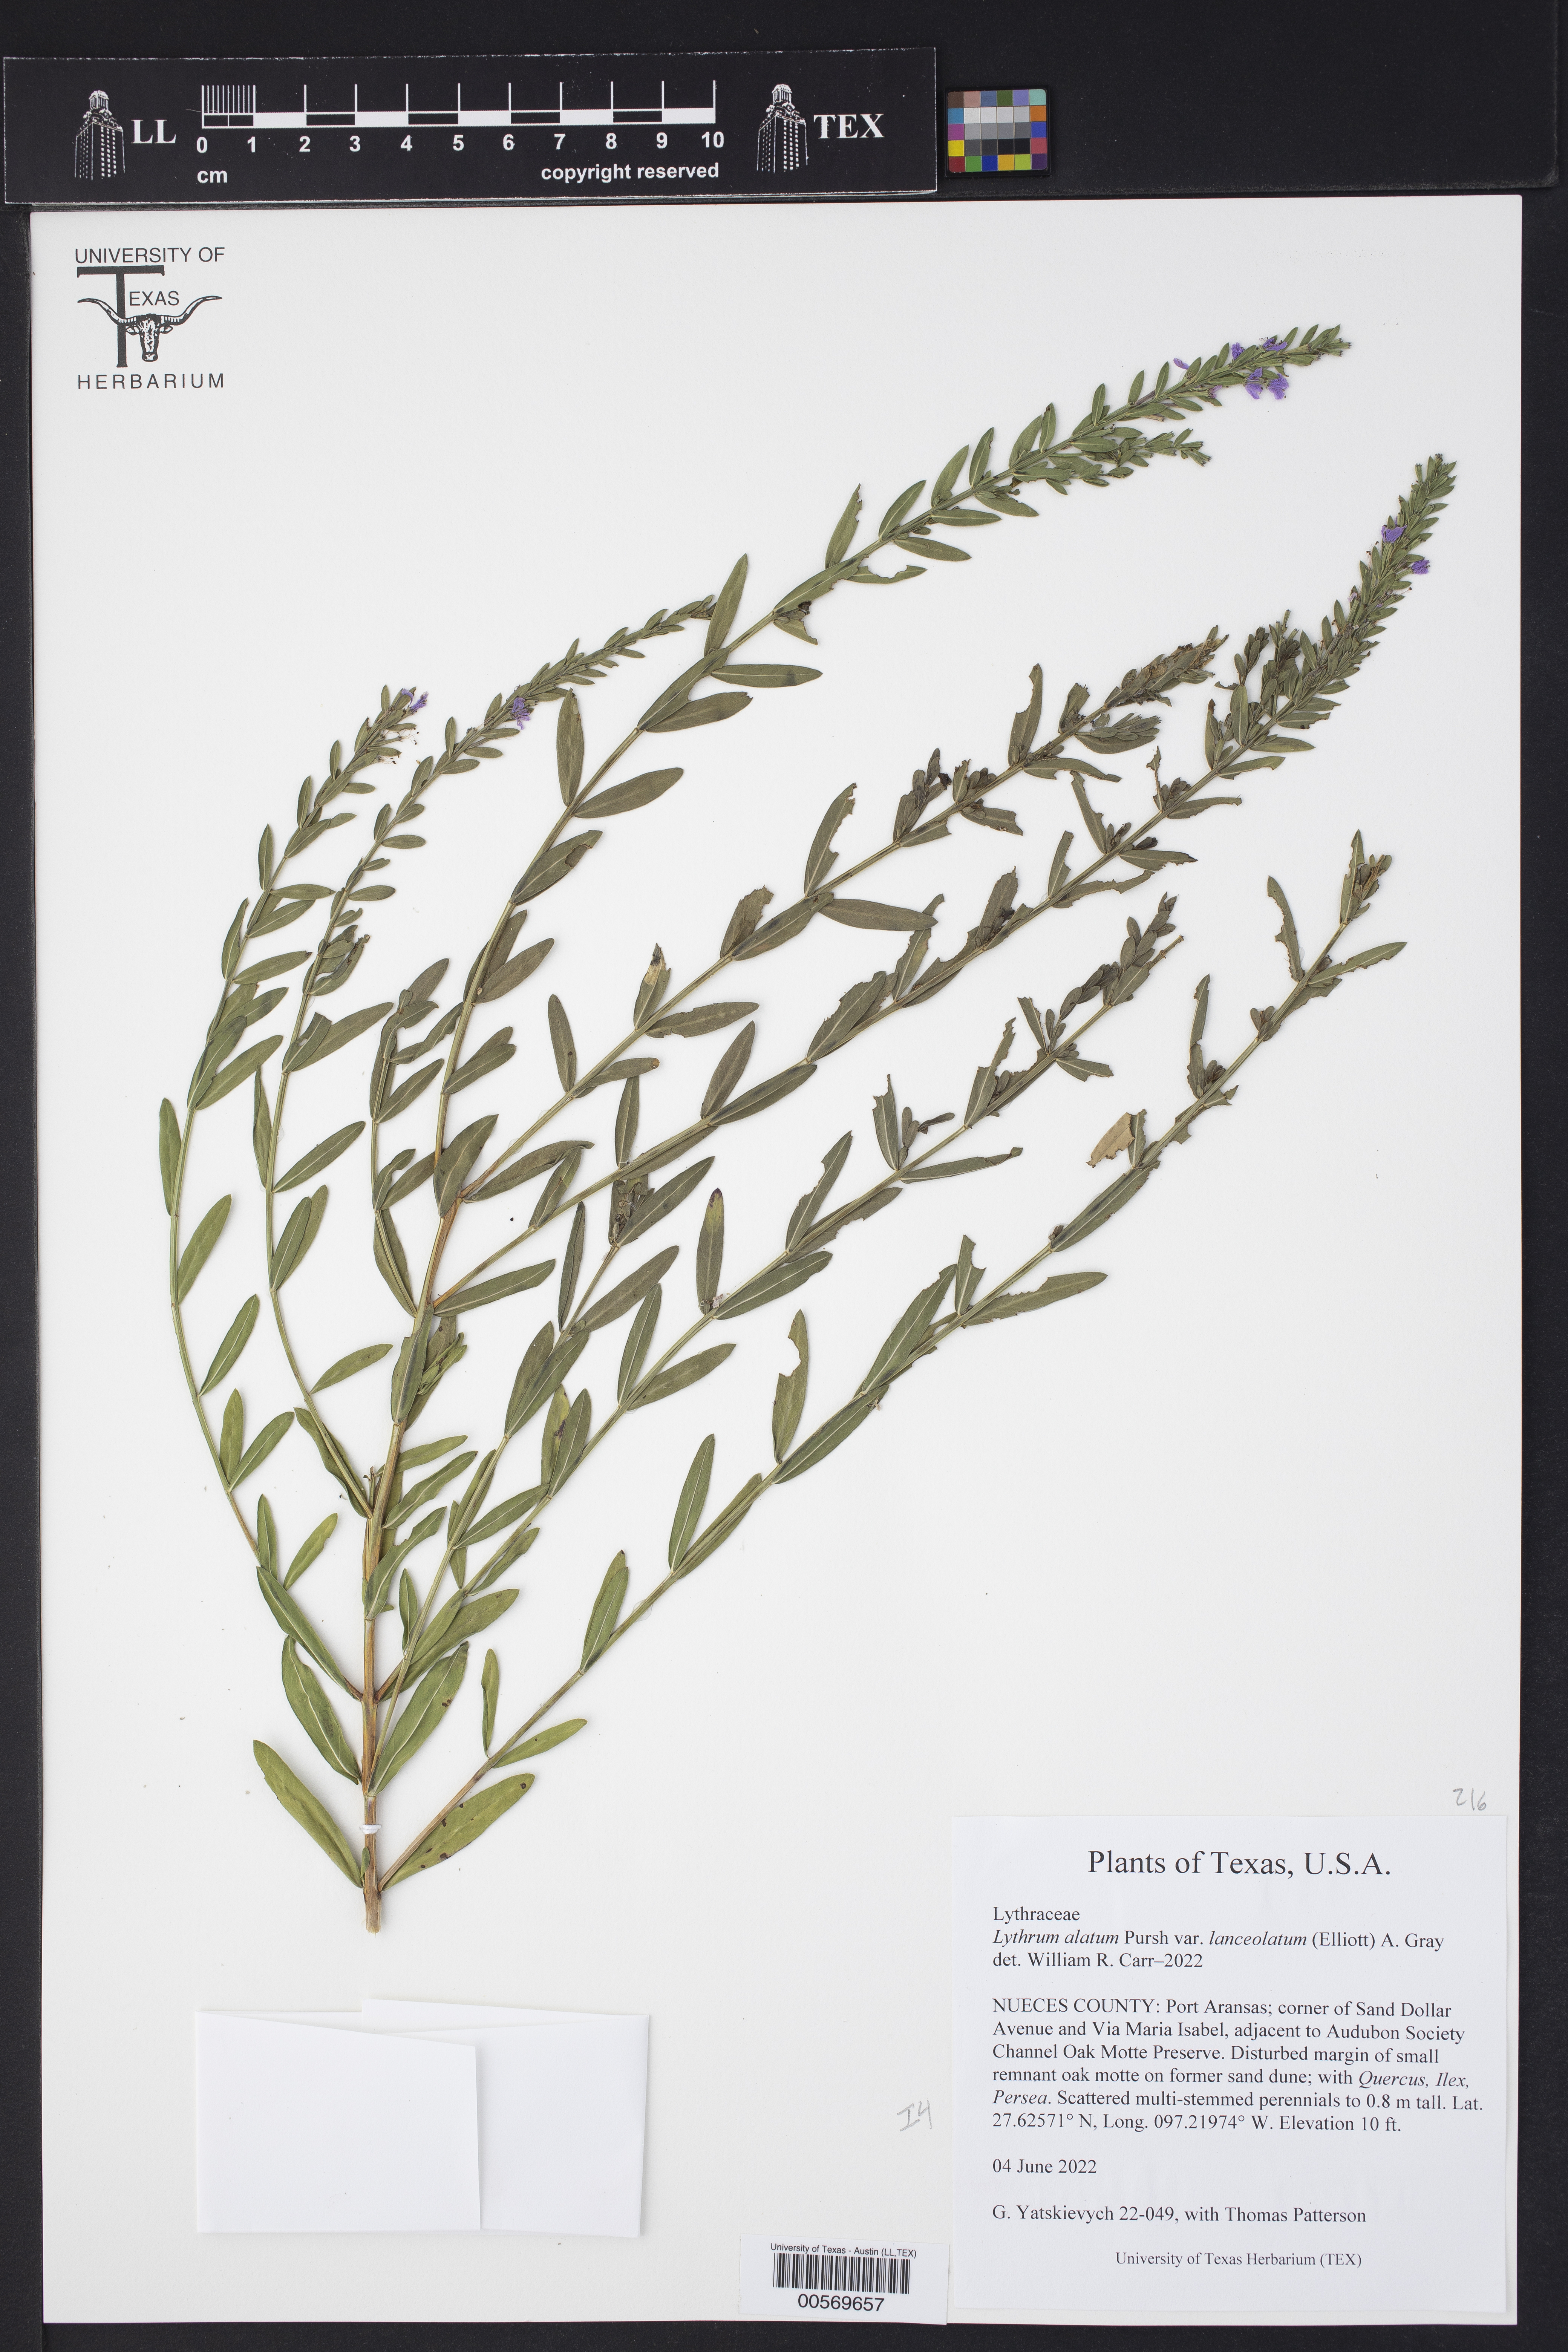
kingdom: Plantae
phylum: Tracheophyta
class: Magnoliopsida
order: Myrtales
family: Lythraceae
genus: Lythrum
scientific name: Lythrum alatum
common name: Winged loosestrife
